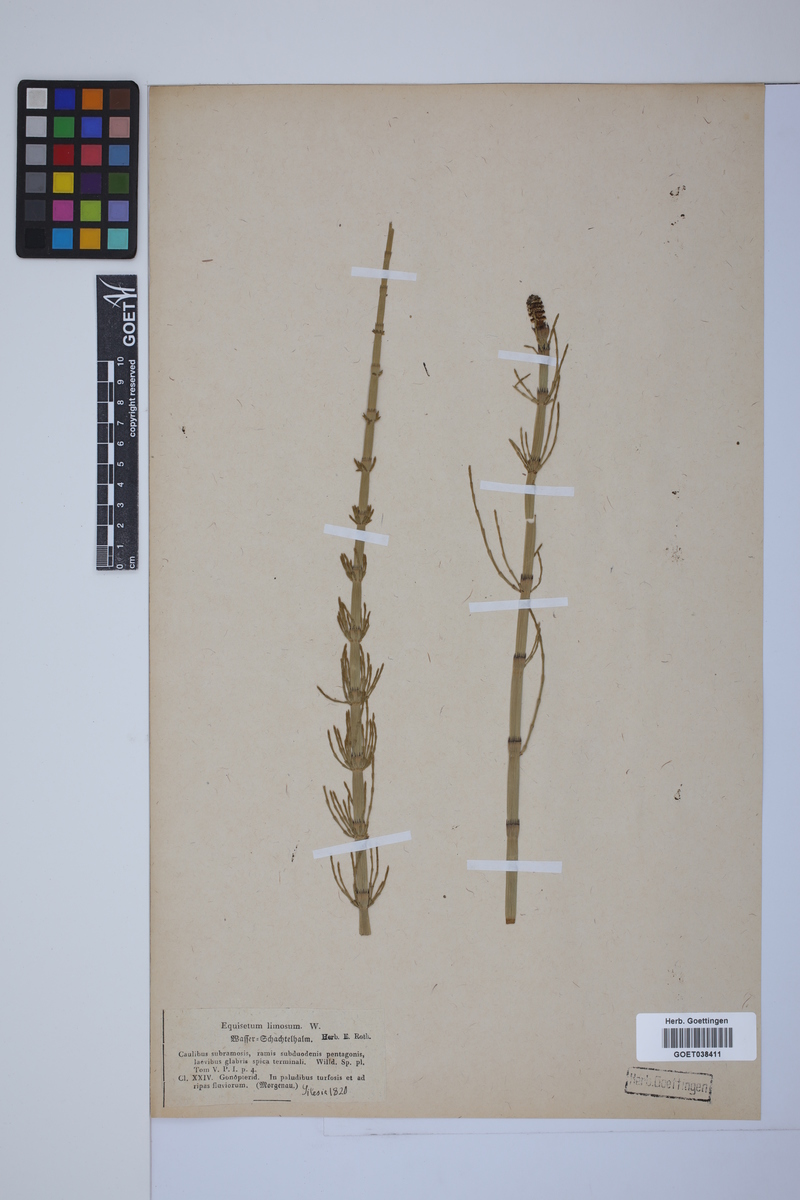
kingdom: Plantae
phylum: Tracheophyta
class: Polypodiopsida
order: Equisetales
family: Equisetaceae
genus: Equisetum
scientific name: Equisetum fluviatile
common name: Water horsetail
